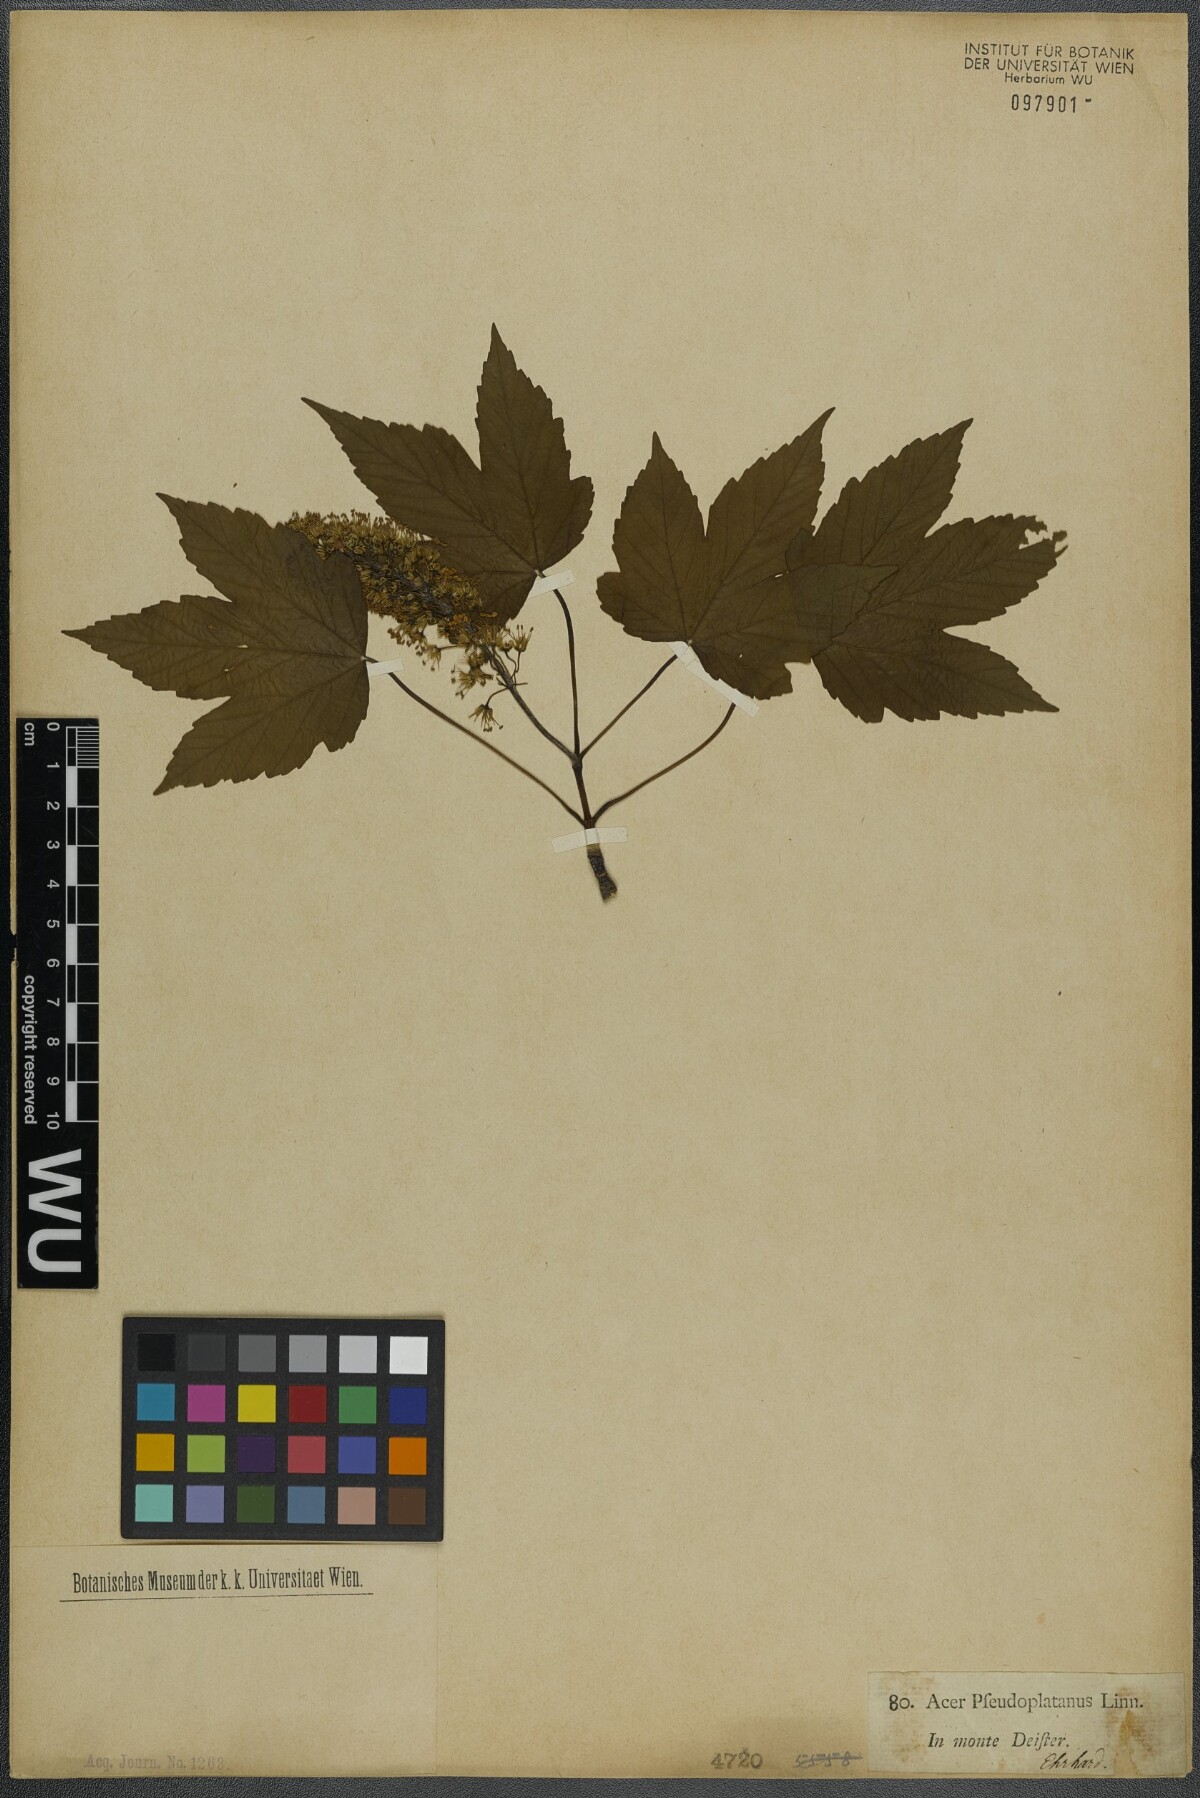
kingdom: Plantae
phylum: Tracheophyta
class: Magnoliopsida
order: Sapindales
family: Sapindaceae
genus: Acer
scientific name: Acer pseudoplatanus
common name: Sycamore
